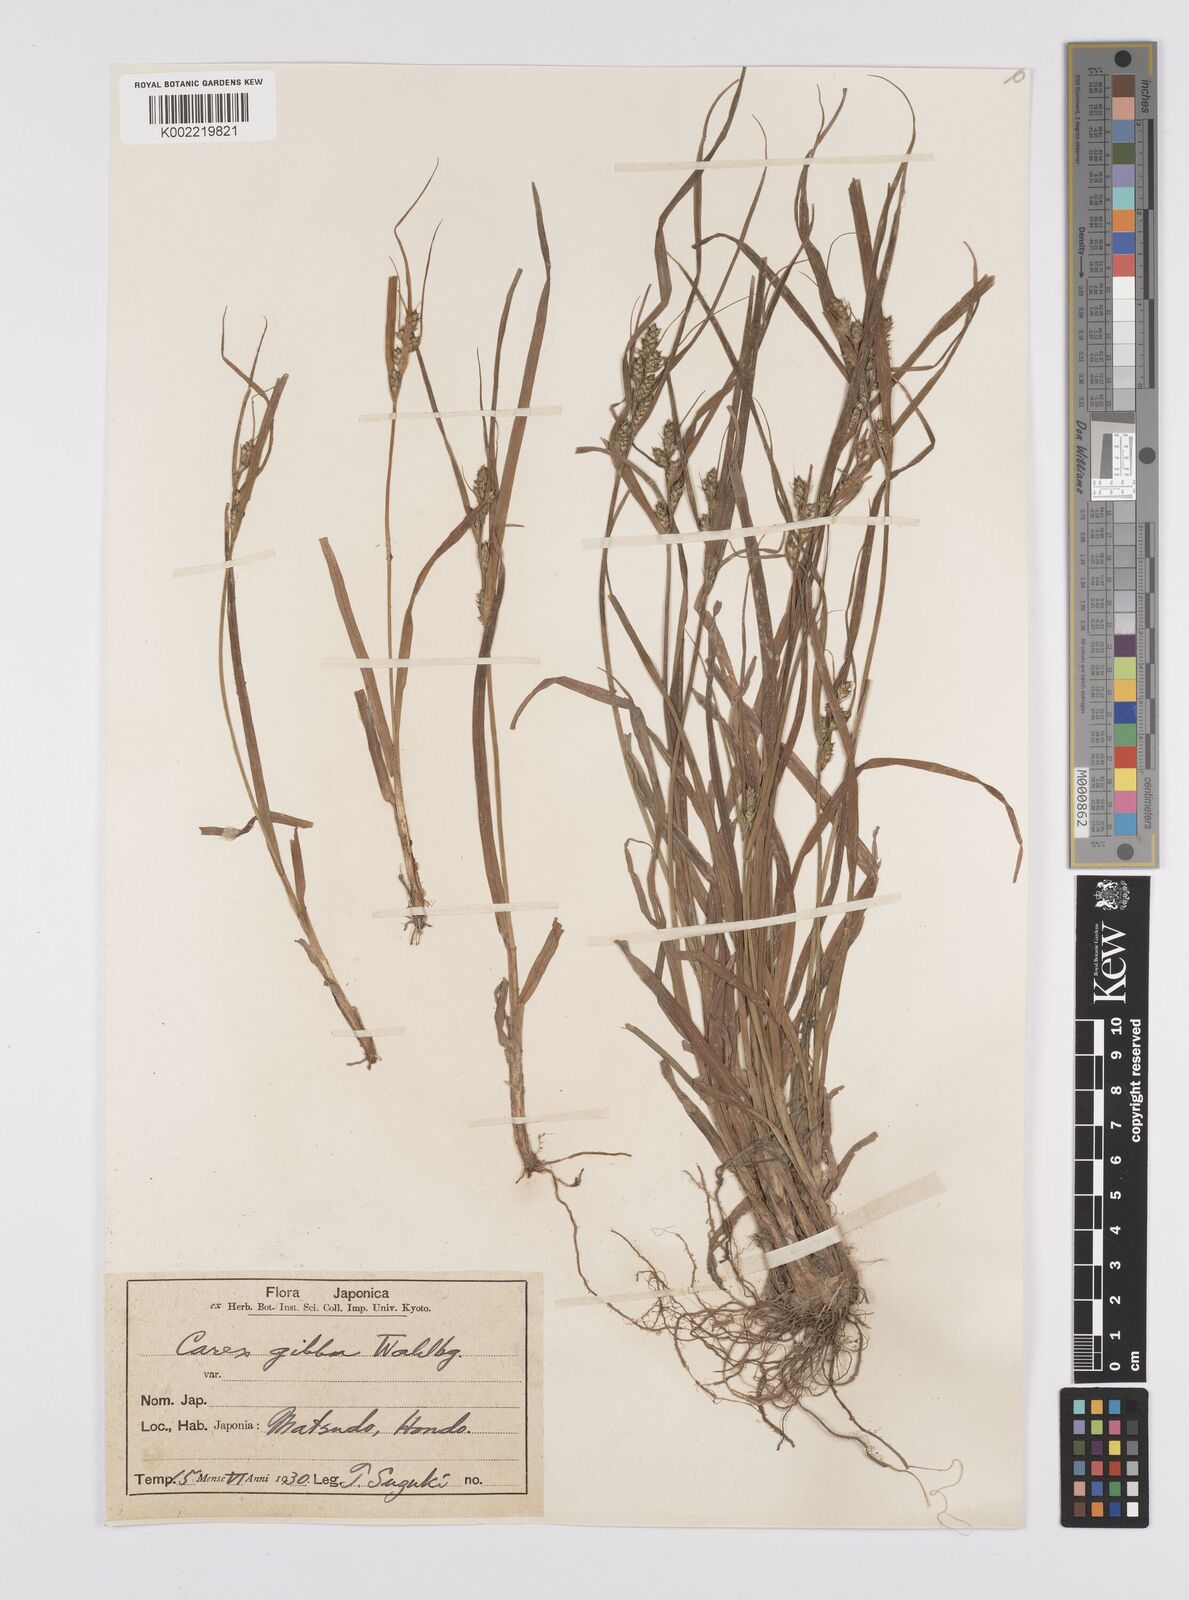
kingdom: Plantae
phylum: Tracheophyta
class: Liliopsida
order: Poales
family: Cyperaceae
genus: Carex
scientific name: Carex gibba
